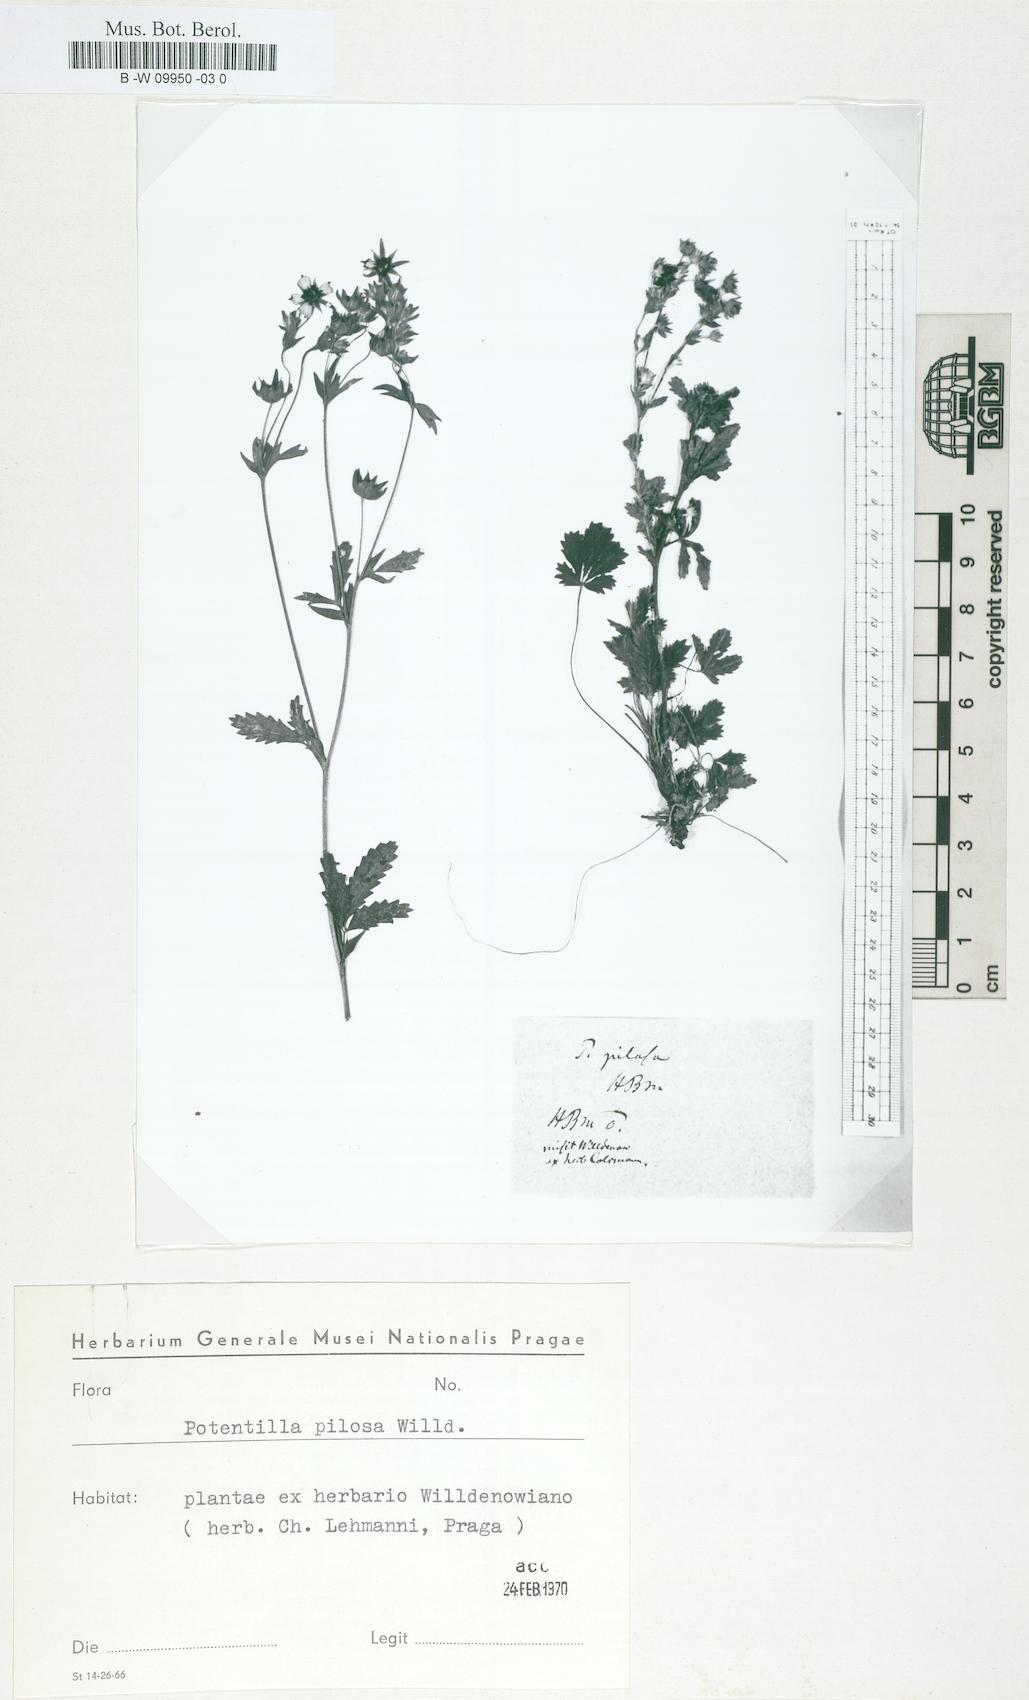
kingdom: Plantae
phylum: Tracheophyta
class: Magnoliopsida
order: Rosales
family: Rosaceae
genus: Potentilla
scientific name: Potentilla
